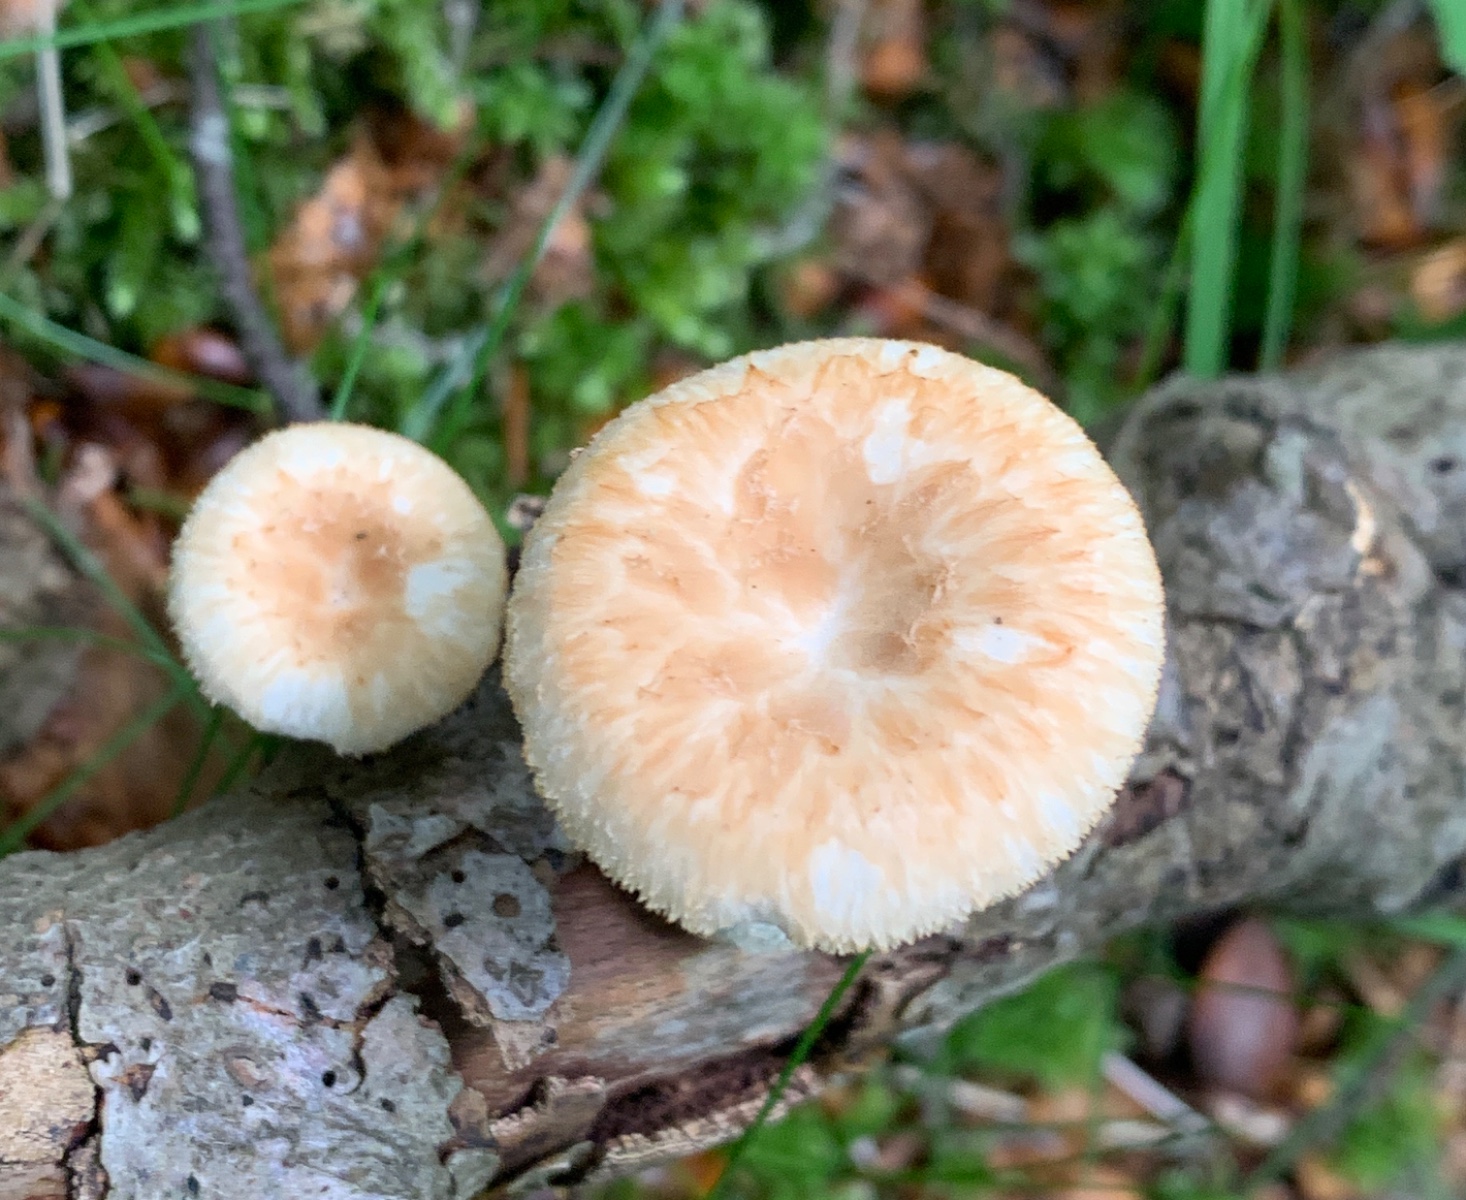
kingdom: Fungi
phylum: Basidiomycota
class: Agaricomycetes
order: Polyporales
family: Polyporaceae
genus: Polyporus
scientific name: Polyporus tuberaster
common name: knoldet stilkporesvamp
